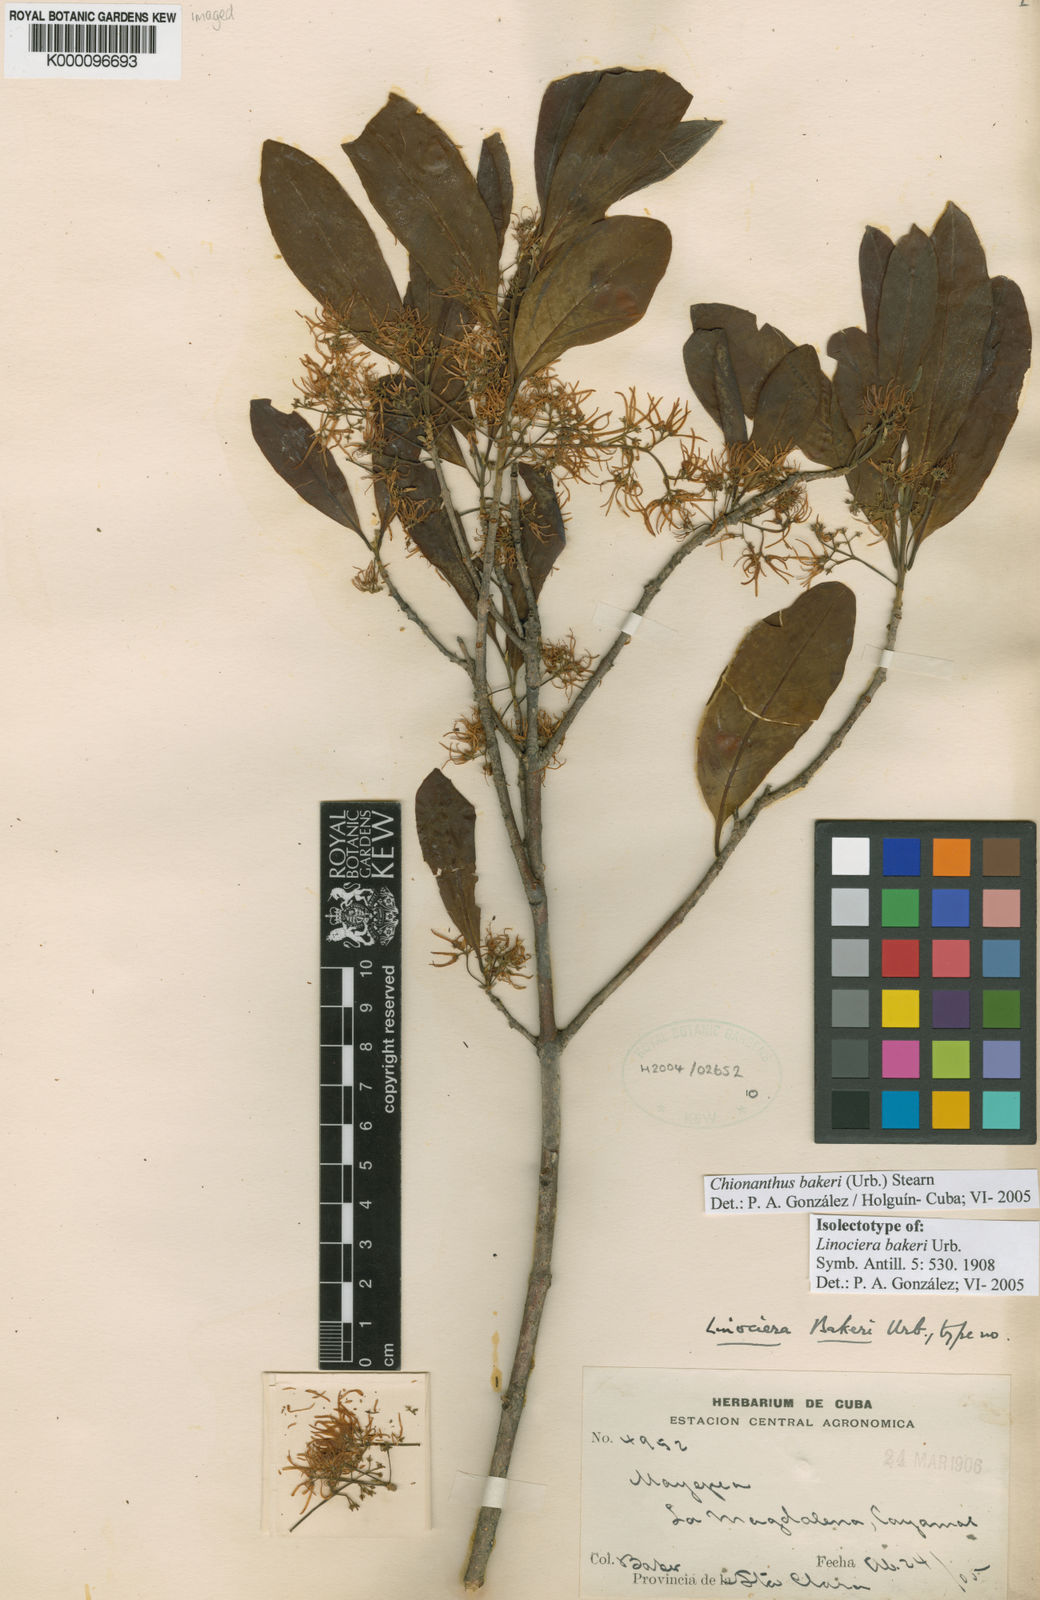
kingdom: Plantae
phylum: Tracheophyta
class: Magnoliopsida
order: Lamiales
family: Oleaceae
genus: Chionanthus
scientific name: Chionanthus bakeri
